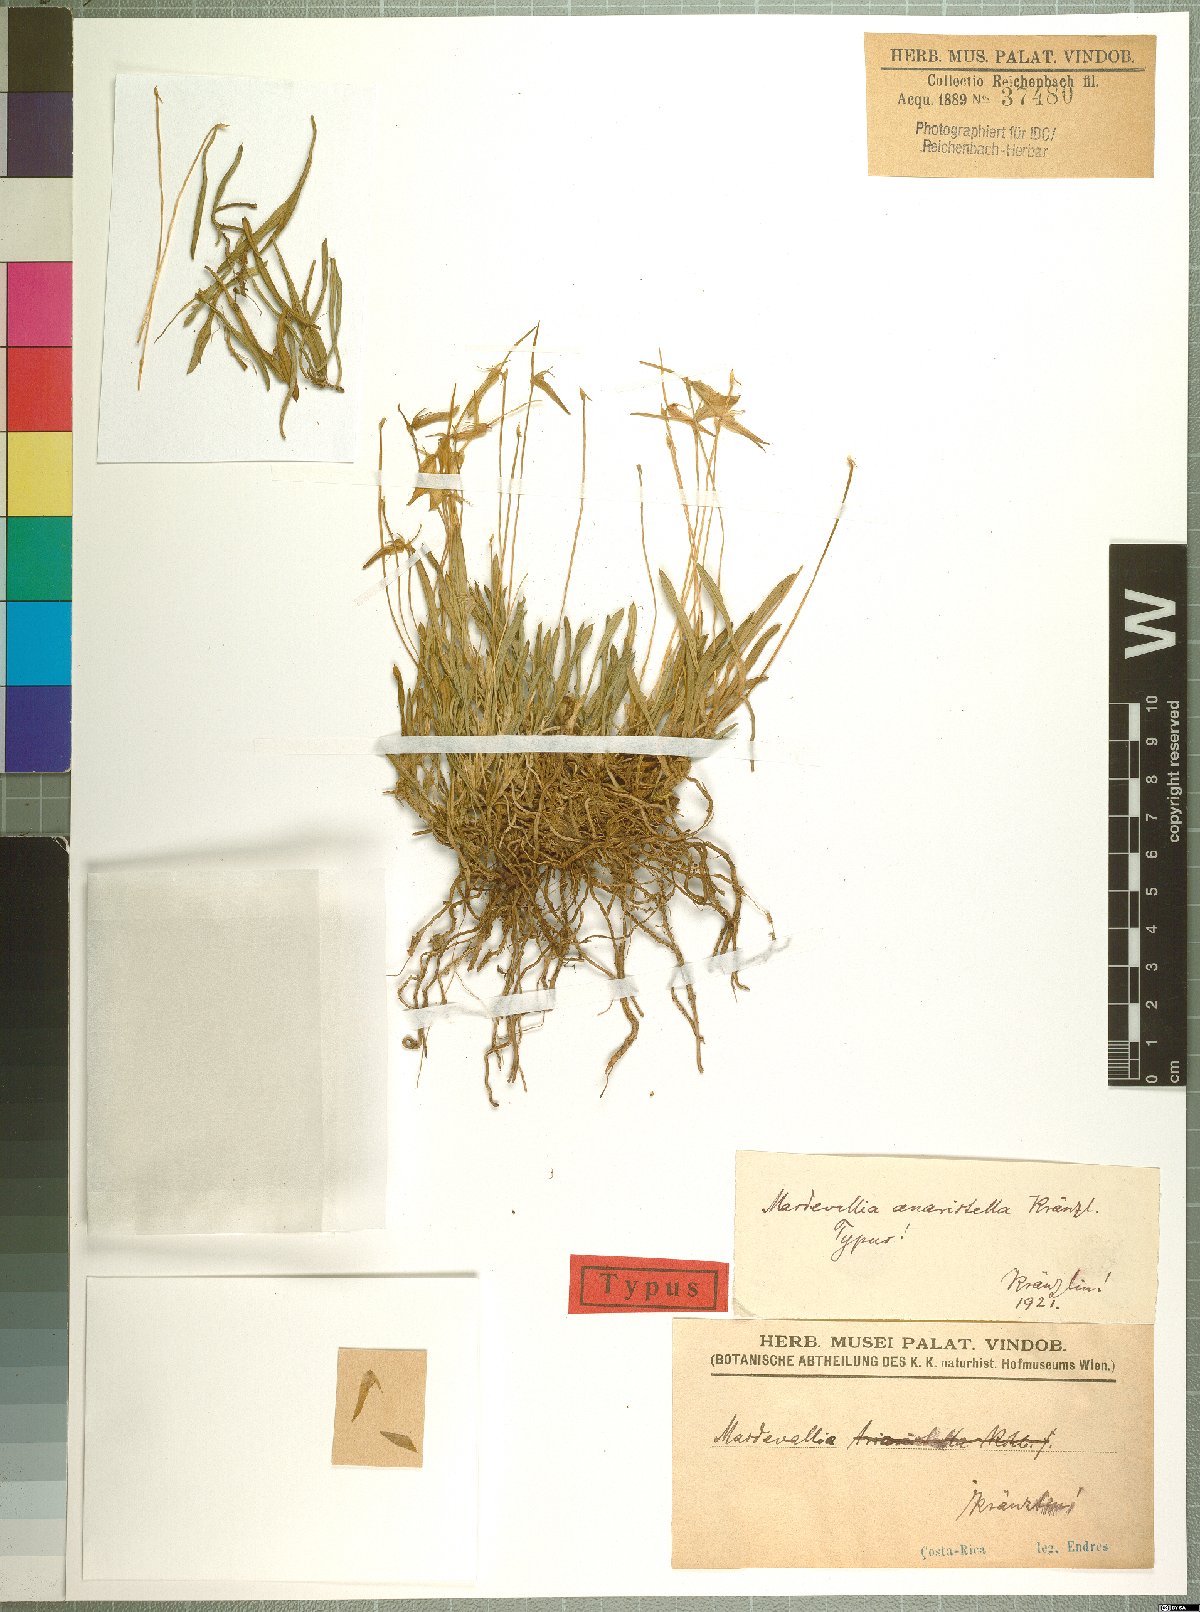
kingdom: Plantae
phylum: Tracheophyta
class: Liliopsida
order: Asparagales
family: Orchidaceae
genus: Barbosella
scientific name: Barbosella dolichorhiza
